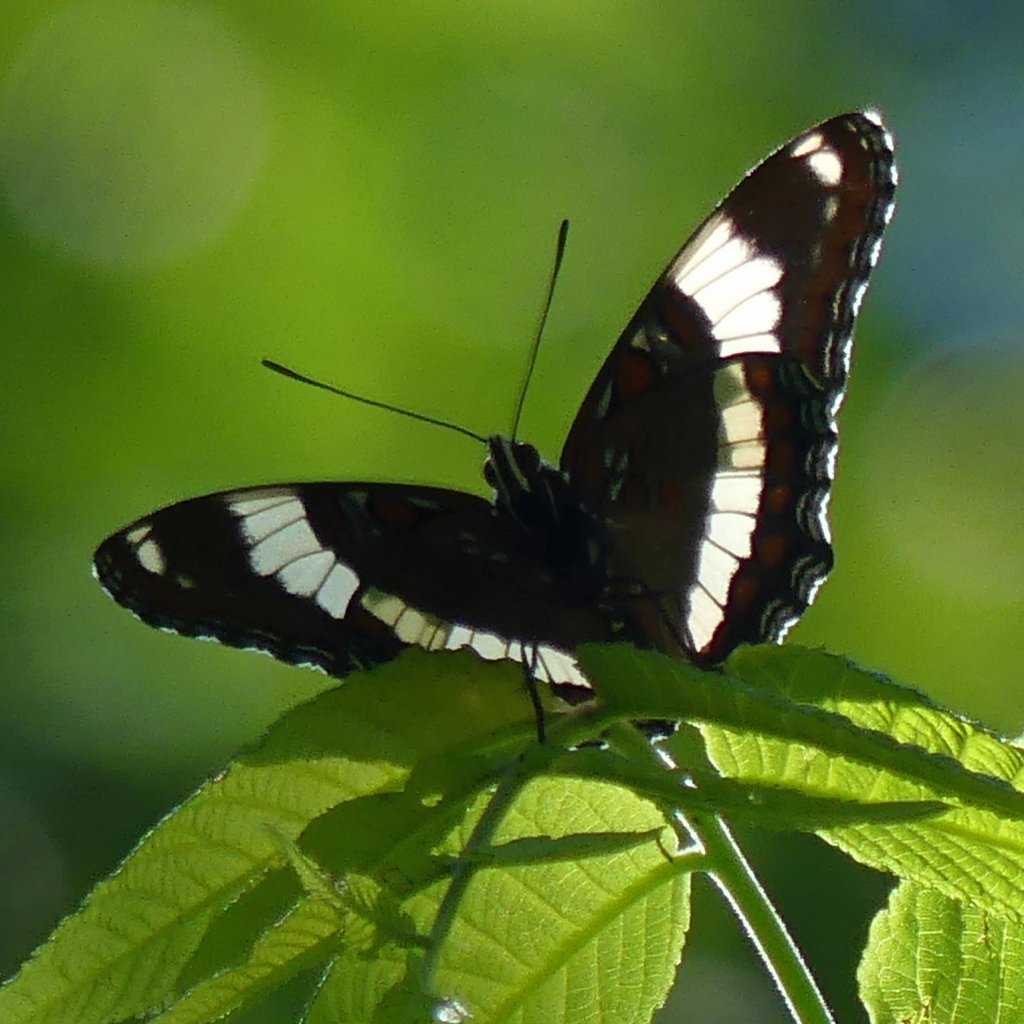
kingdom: Animalia
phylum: Arthropoda
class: Insecta
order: Lepidoptera
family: Nymphalidae
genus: Limenitis
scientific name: Limenitis arthemis
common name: Red-spotted Admiral
